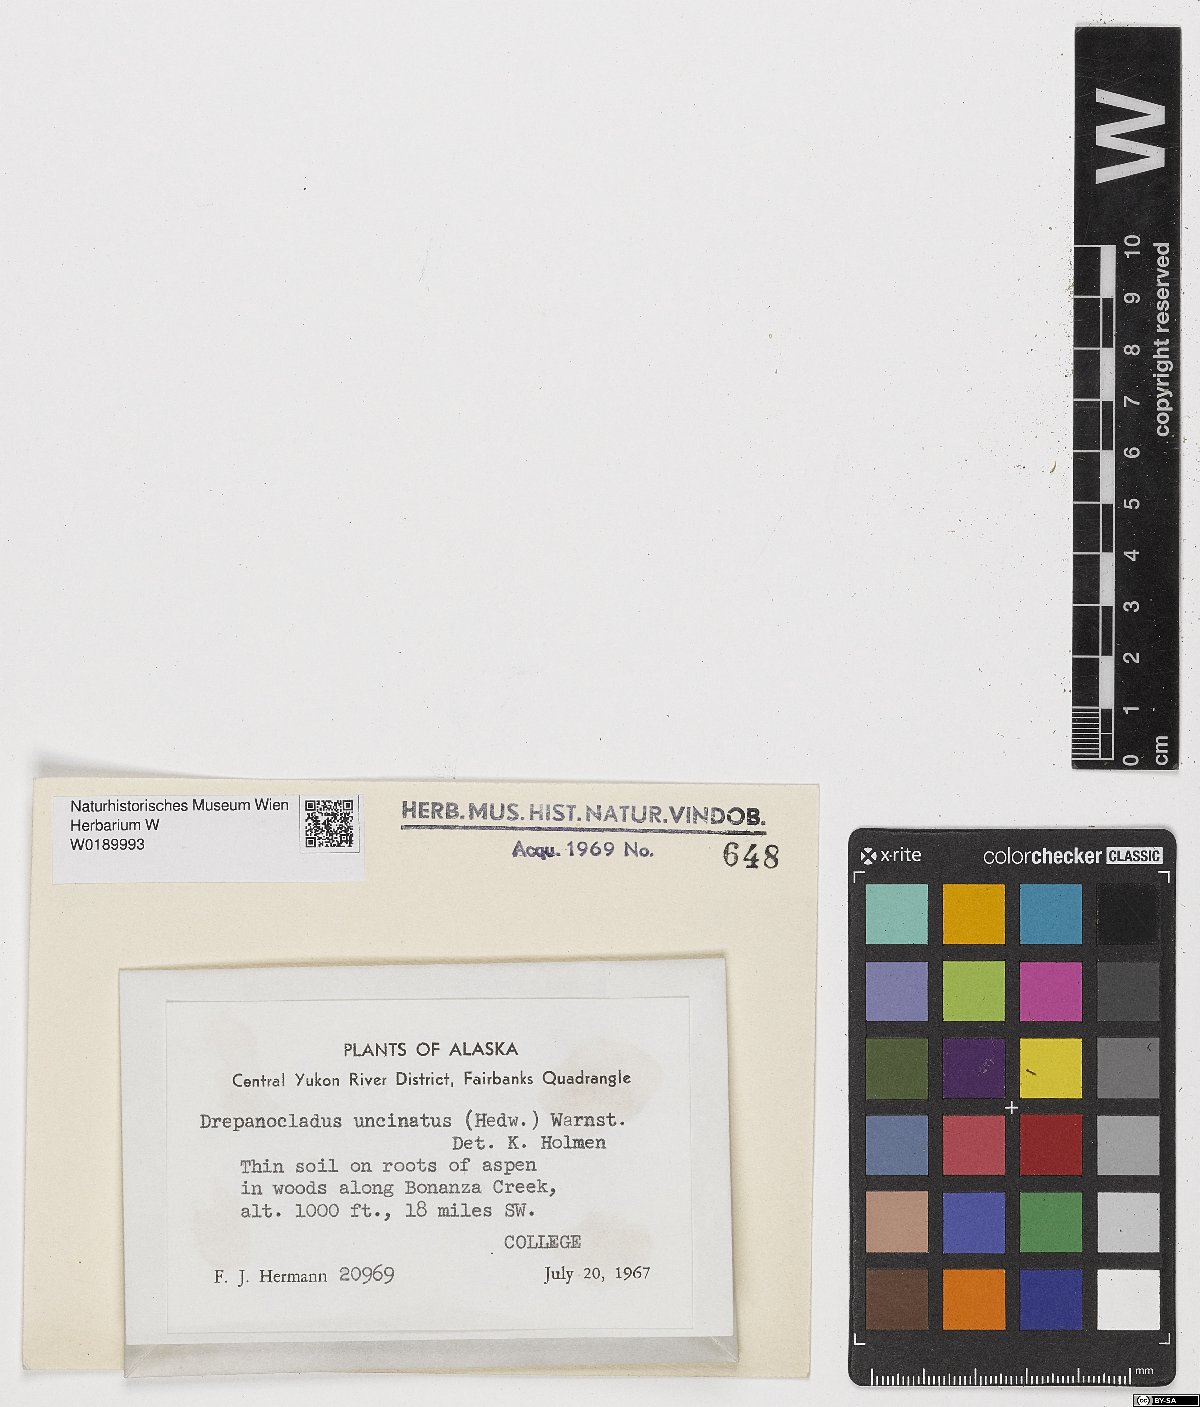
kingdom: Plantae
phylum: Bryophyta
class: Bryopsida
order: Hypnales
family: Scorpidiaceae
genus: Sanionia
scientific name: Sanionia uncinata
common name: Sickle moss
